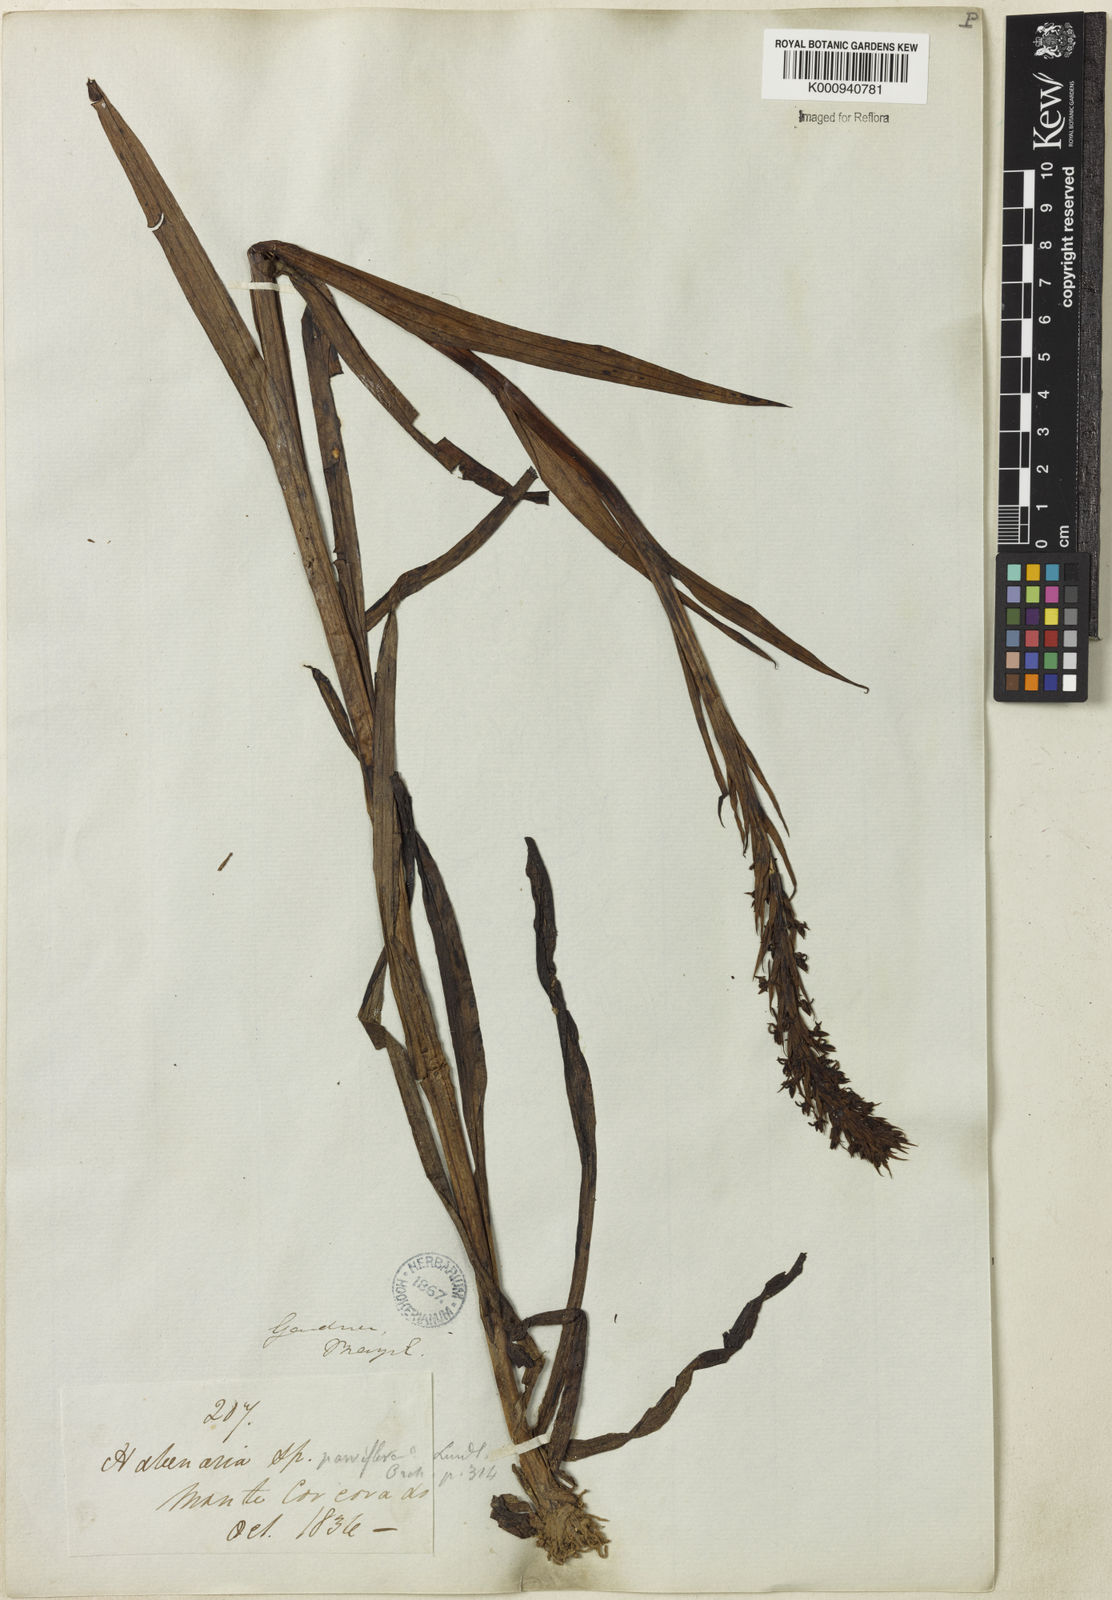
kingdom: Plantae
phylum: Tracheophyta
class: Liliopsida
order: Asparagales
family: Orchidaceae
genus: Habenaria
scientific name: Habenaria parviflora
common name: Small flowered habenaria
